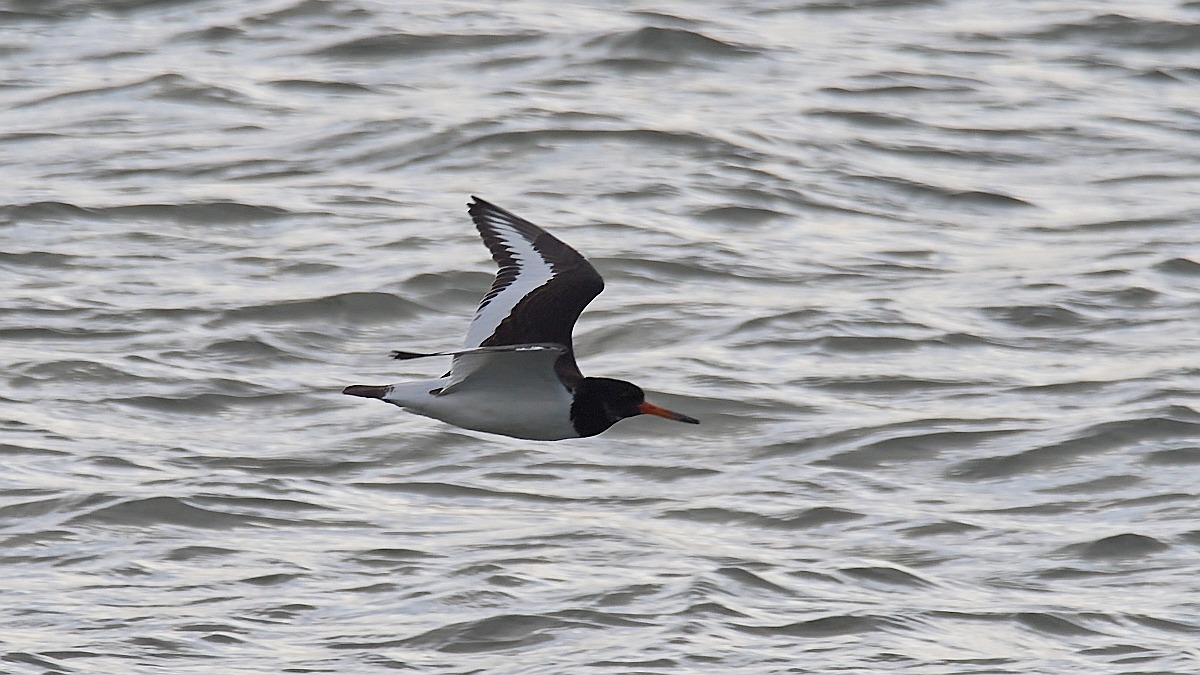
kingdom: Animalia
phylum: Chordata
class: Aves
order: Charadriiformes
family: Haematopodidae
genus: Haematopus
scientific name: Haematopus ostralegus
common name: Strandskade
